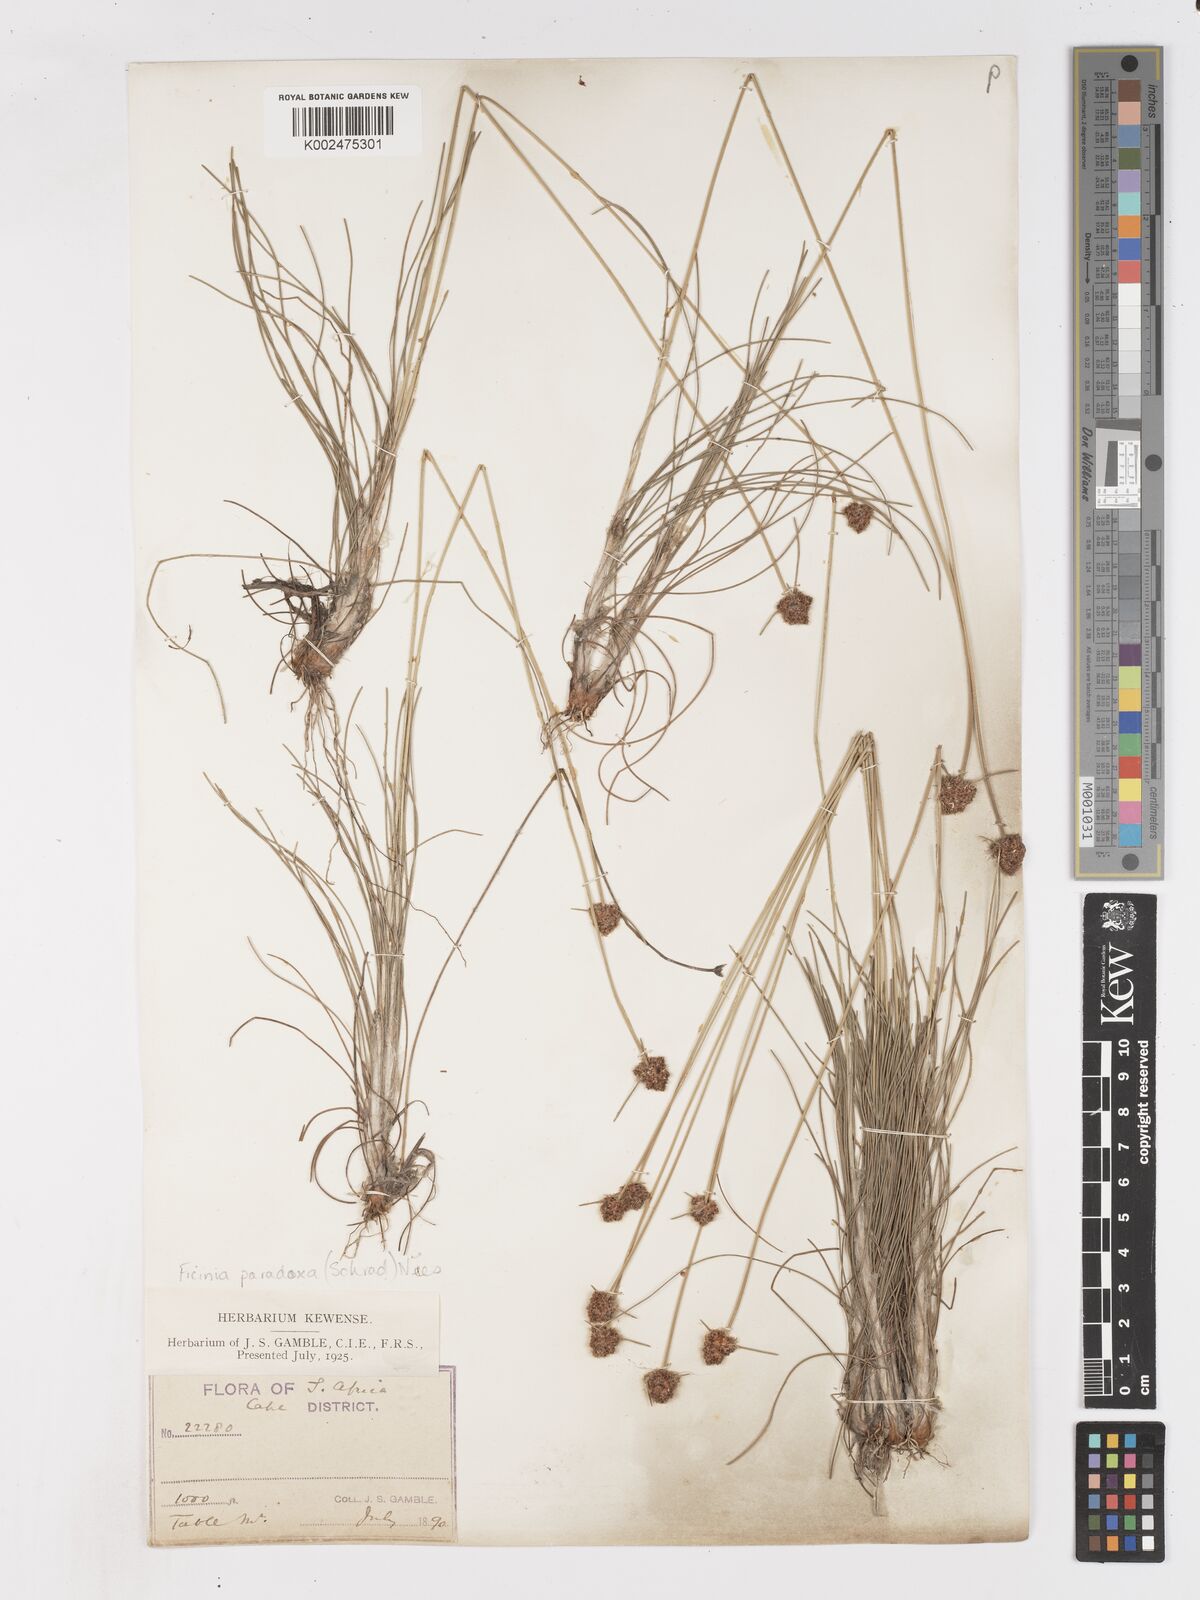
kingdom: Plantae
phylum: Tracheophyta
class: Liliopsida
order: Poales
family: Cyperaceae
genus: Ficinia
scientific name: Ficinia paradoxa
